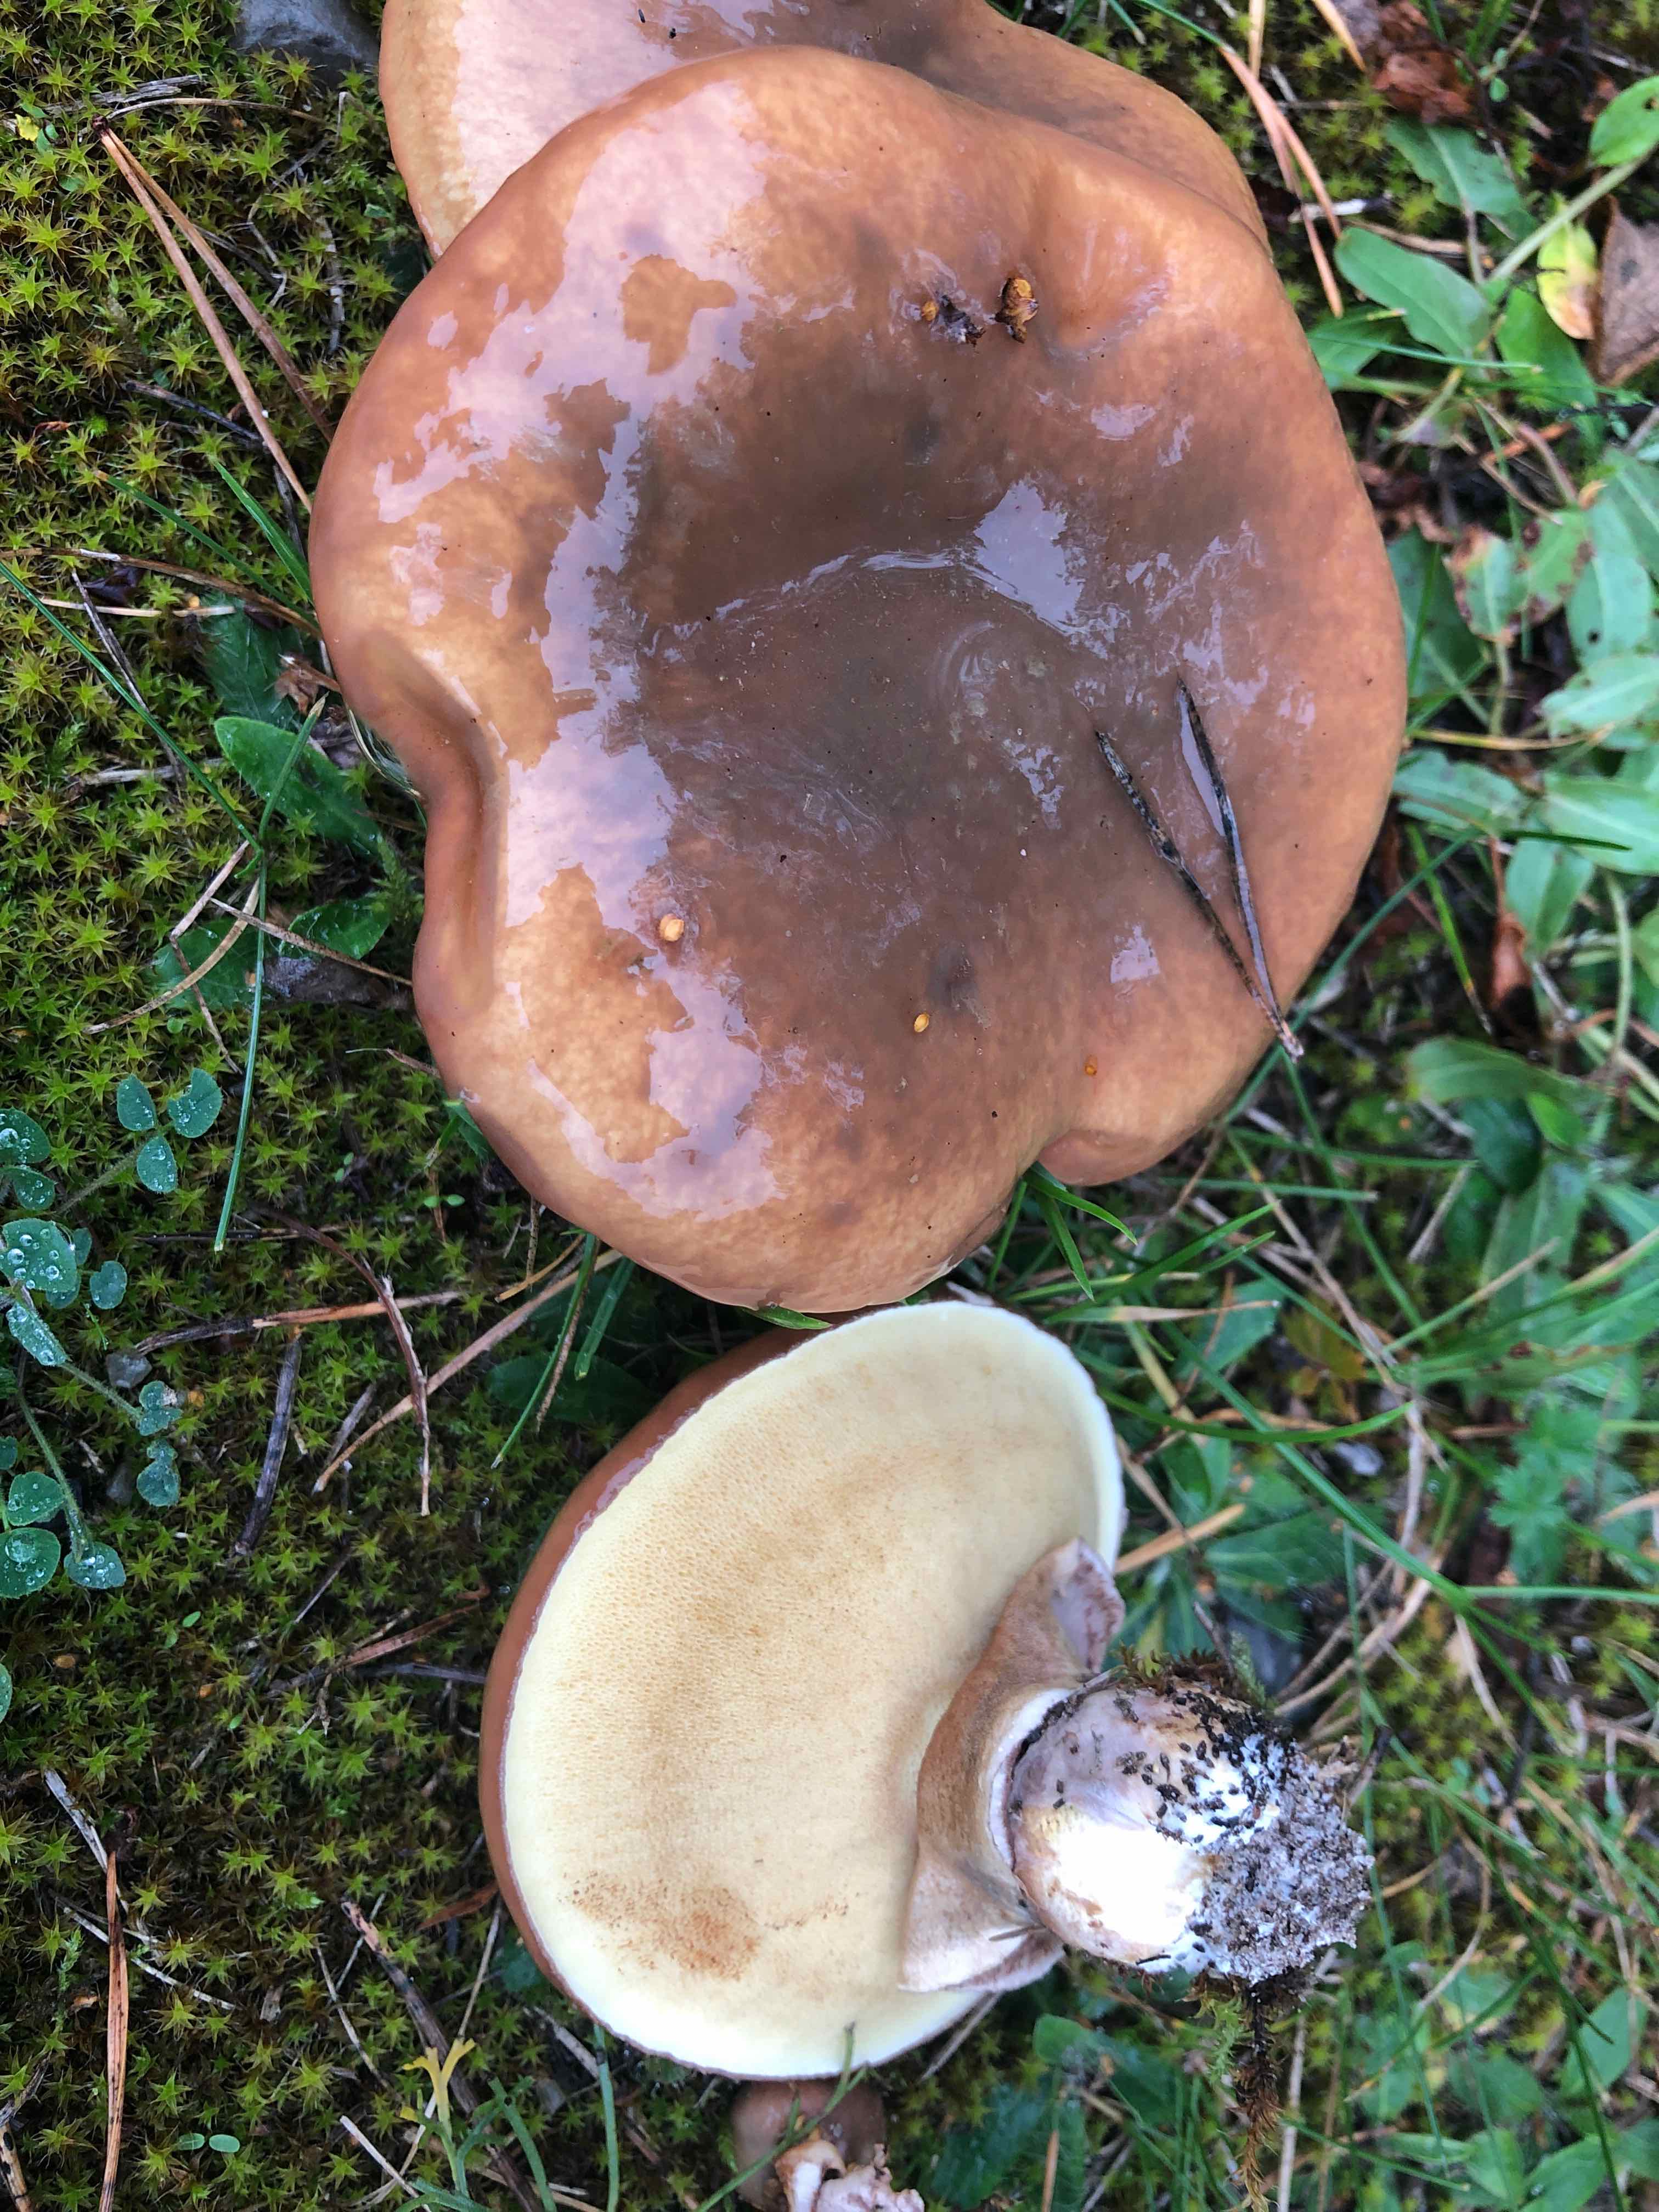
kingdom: Fungi
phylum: Basidiomycota
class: Agaricomycetes
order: Boletales
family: Suillaceae
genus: Suillus
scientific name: Suillus luteus
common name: brungul slimrørhat
